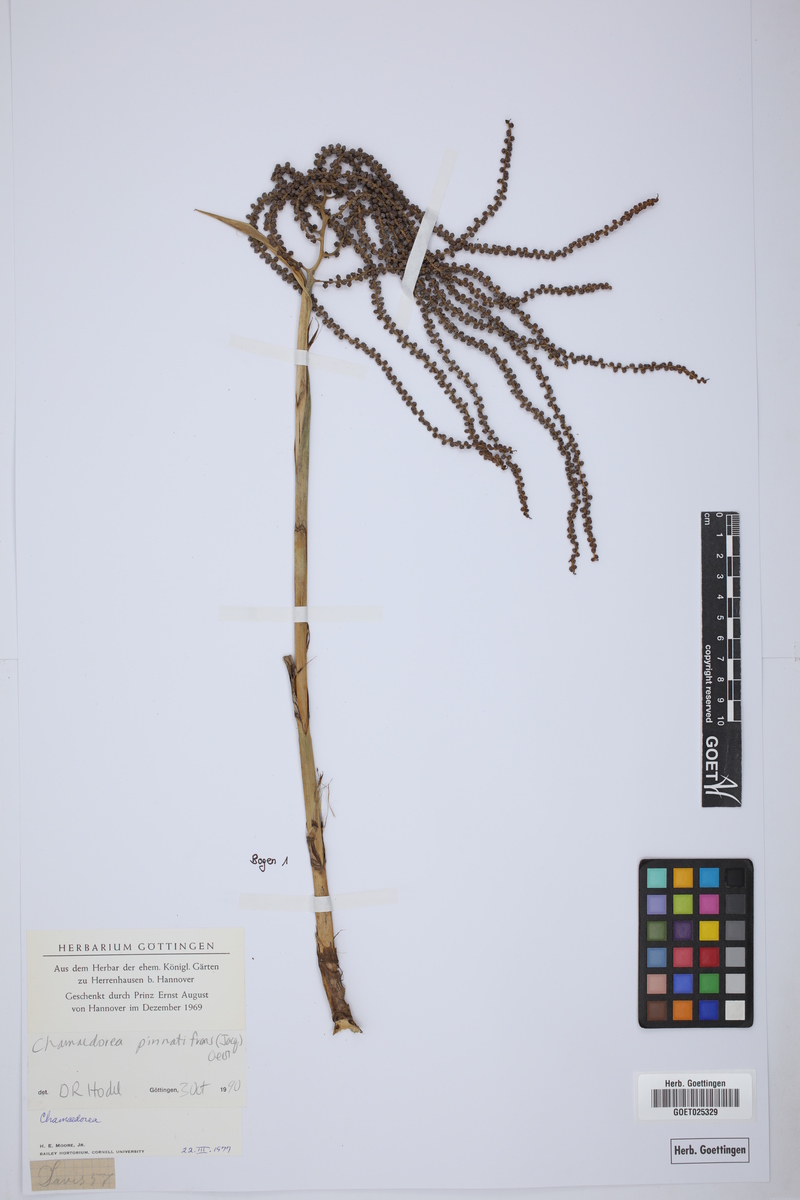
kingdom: Plantae
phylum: Tracheophyta
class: Liliopsida
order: Arecales
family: Arecaceae
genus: Chamaedorea
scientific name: Chamaedorea pinnatifrons
